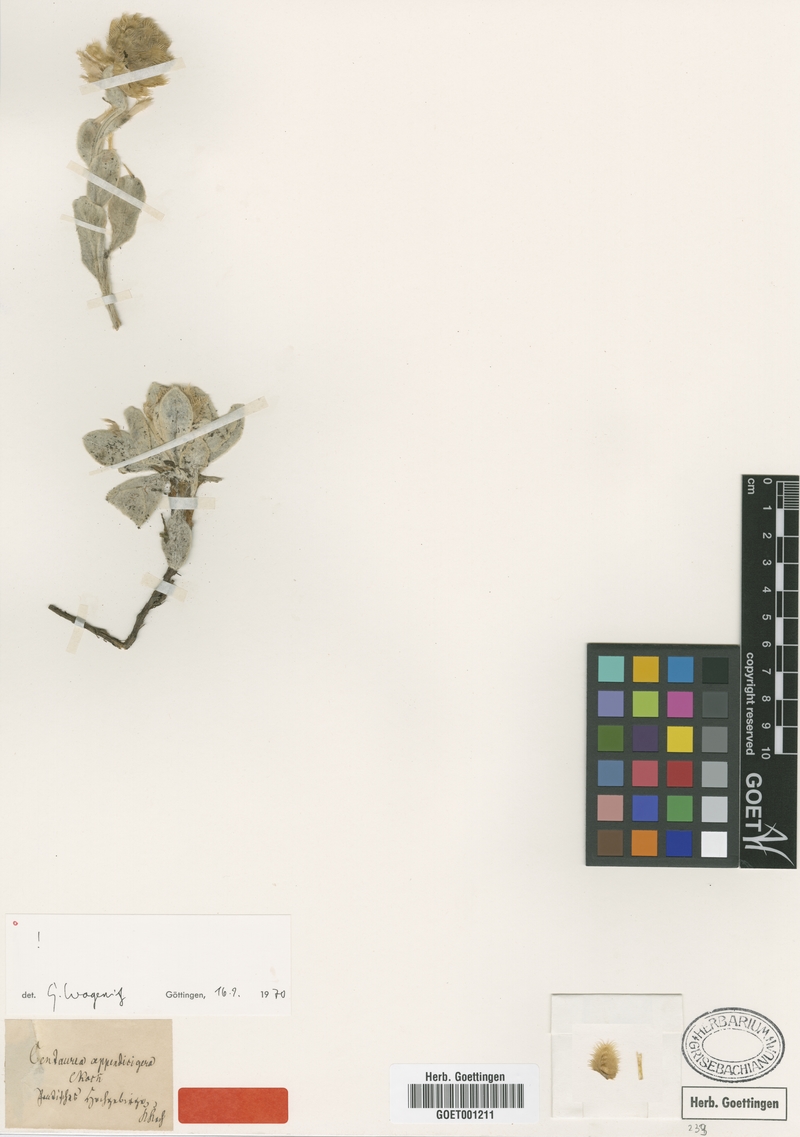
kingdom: Plantae
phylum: Tracheophyta
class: Magnoliopsida
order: Asterales
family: Asteraceae
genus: Psephellus
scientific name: Psephellus appendicigerus
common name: Appendage-bearing centaury
